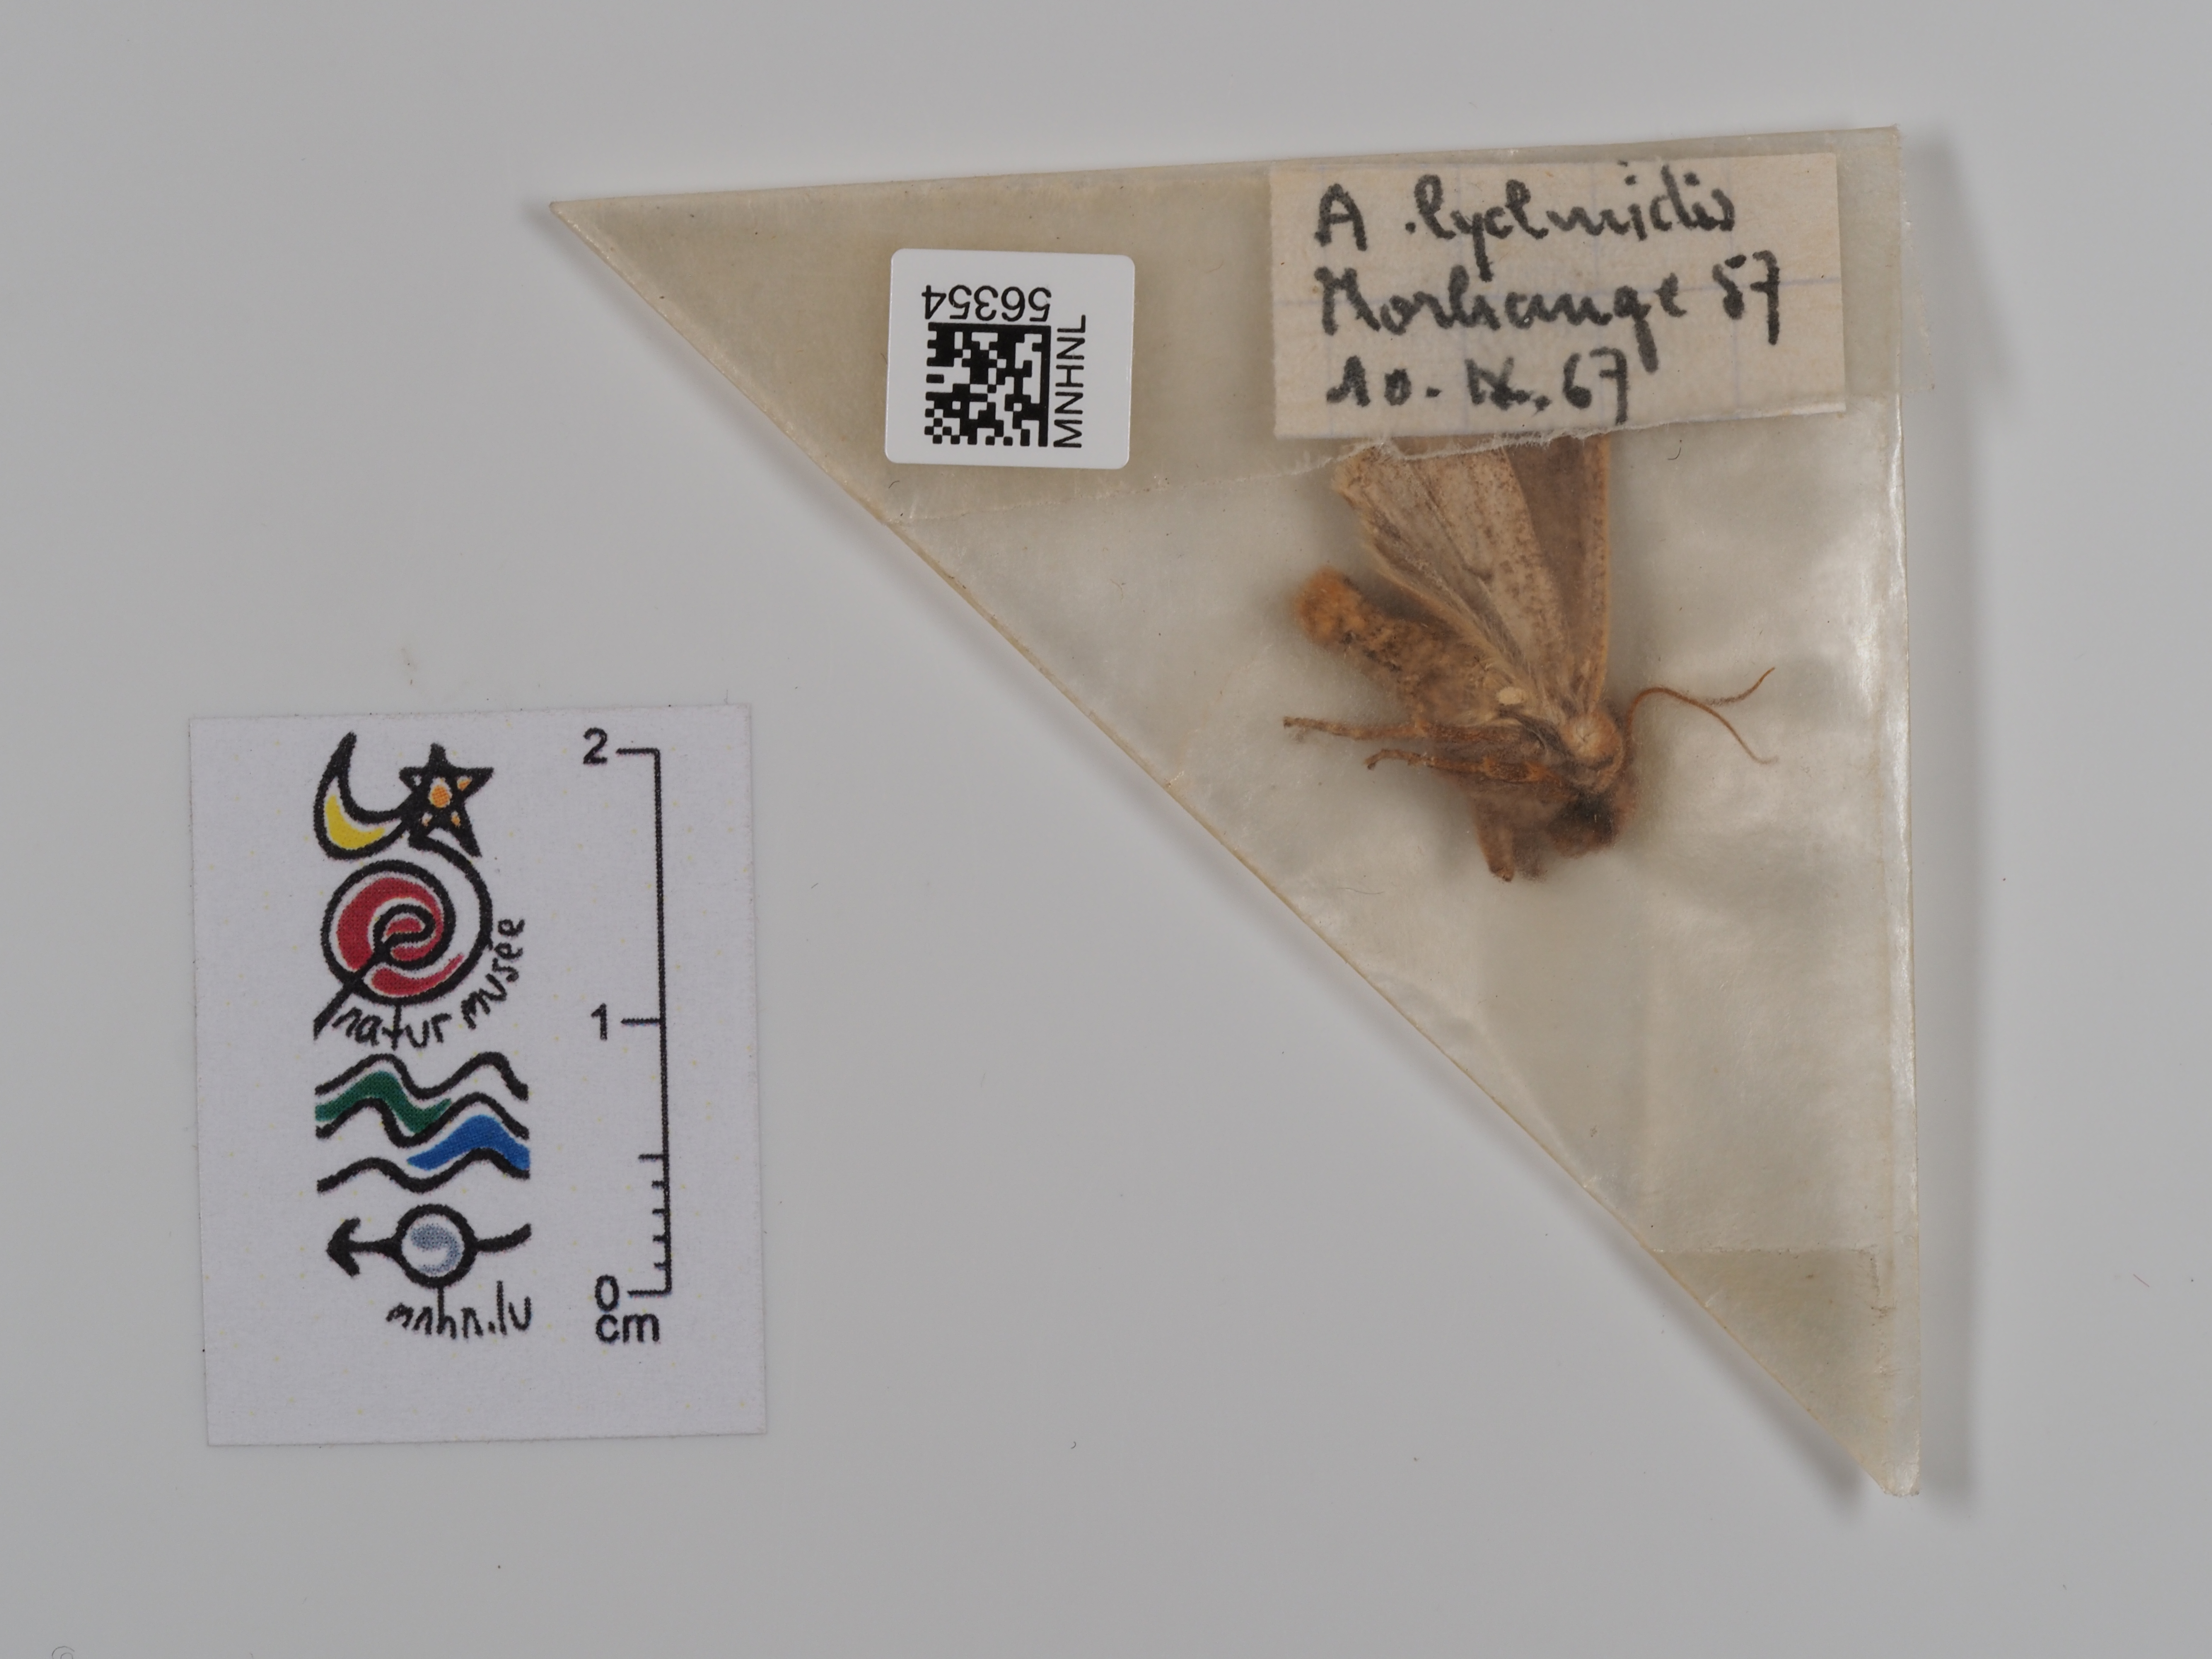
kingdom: Animalia
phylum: Arthropoda
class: Insecta
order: Lepidoptera
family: Noctuidae
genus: Agrochola
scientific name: Agrochola lychnidis
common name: Beaded chestnut
